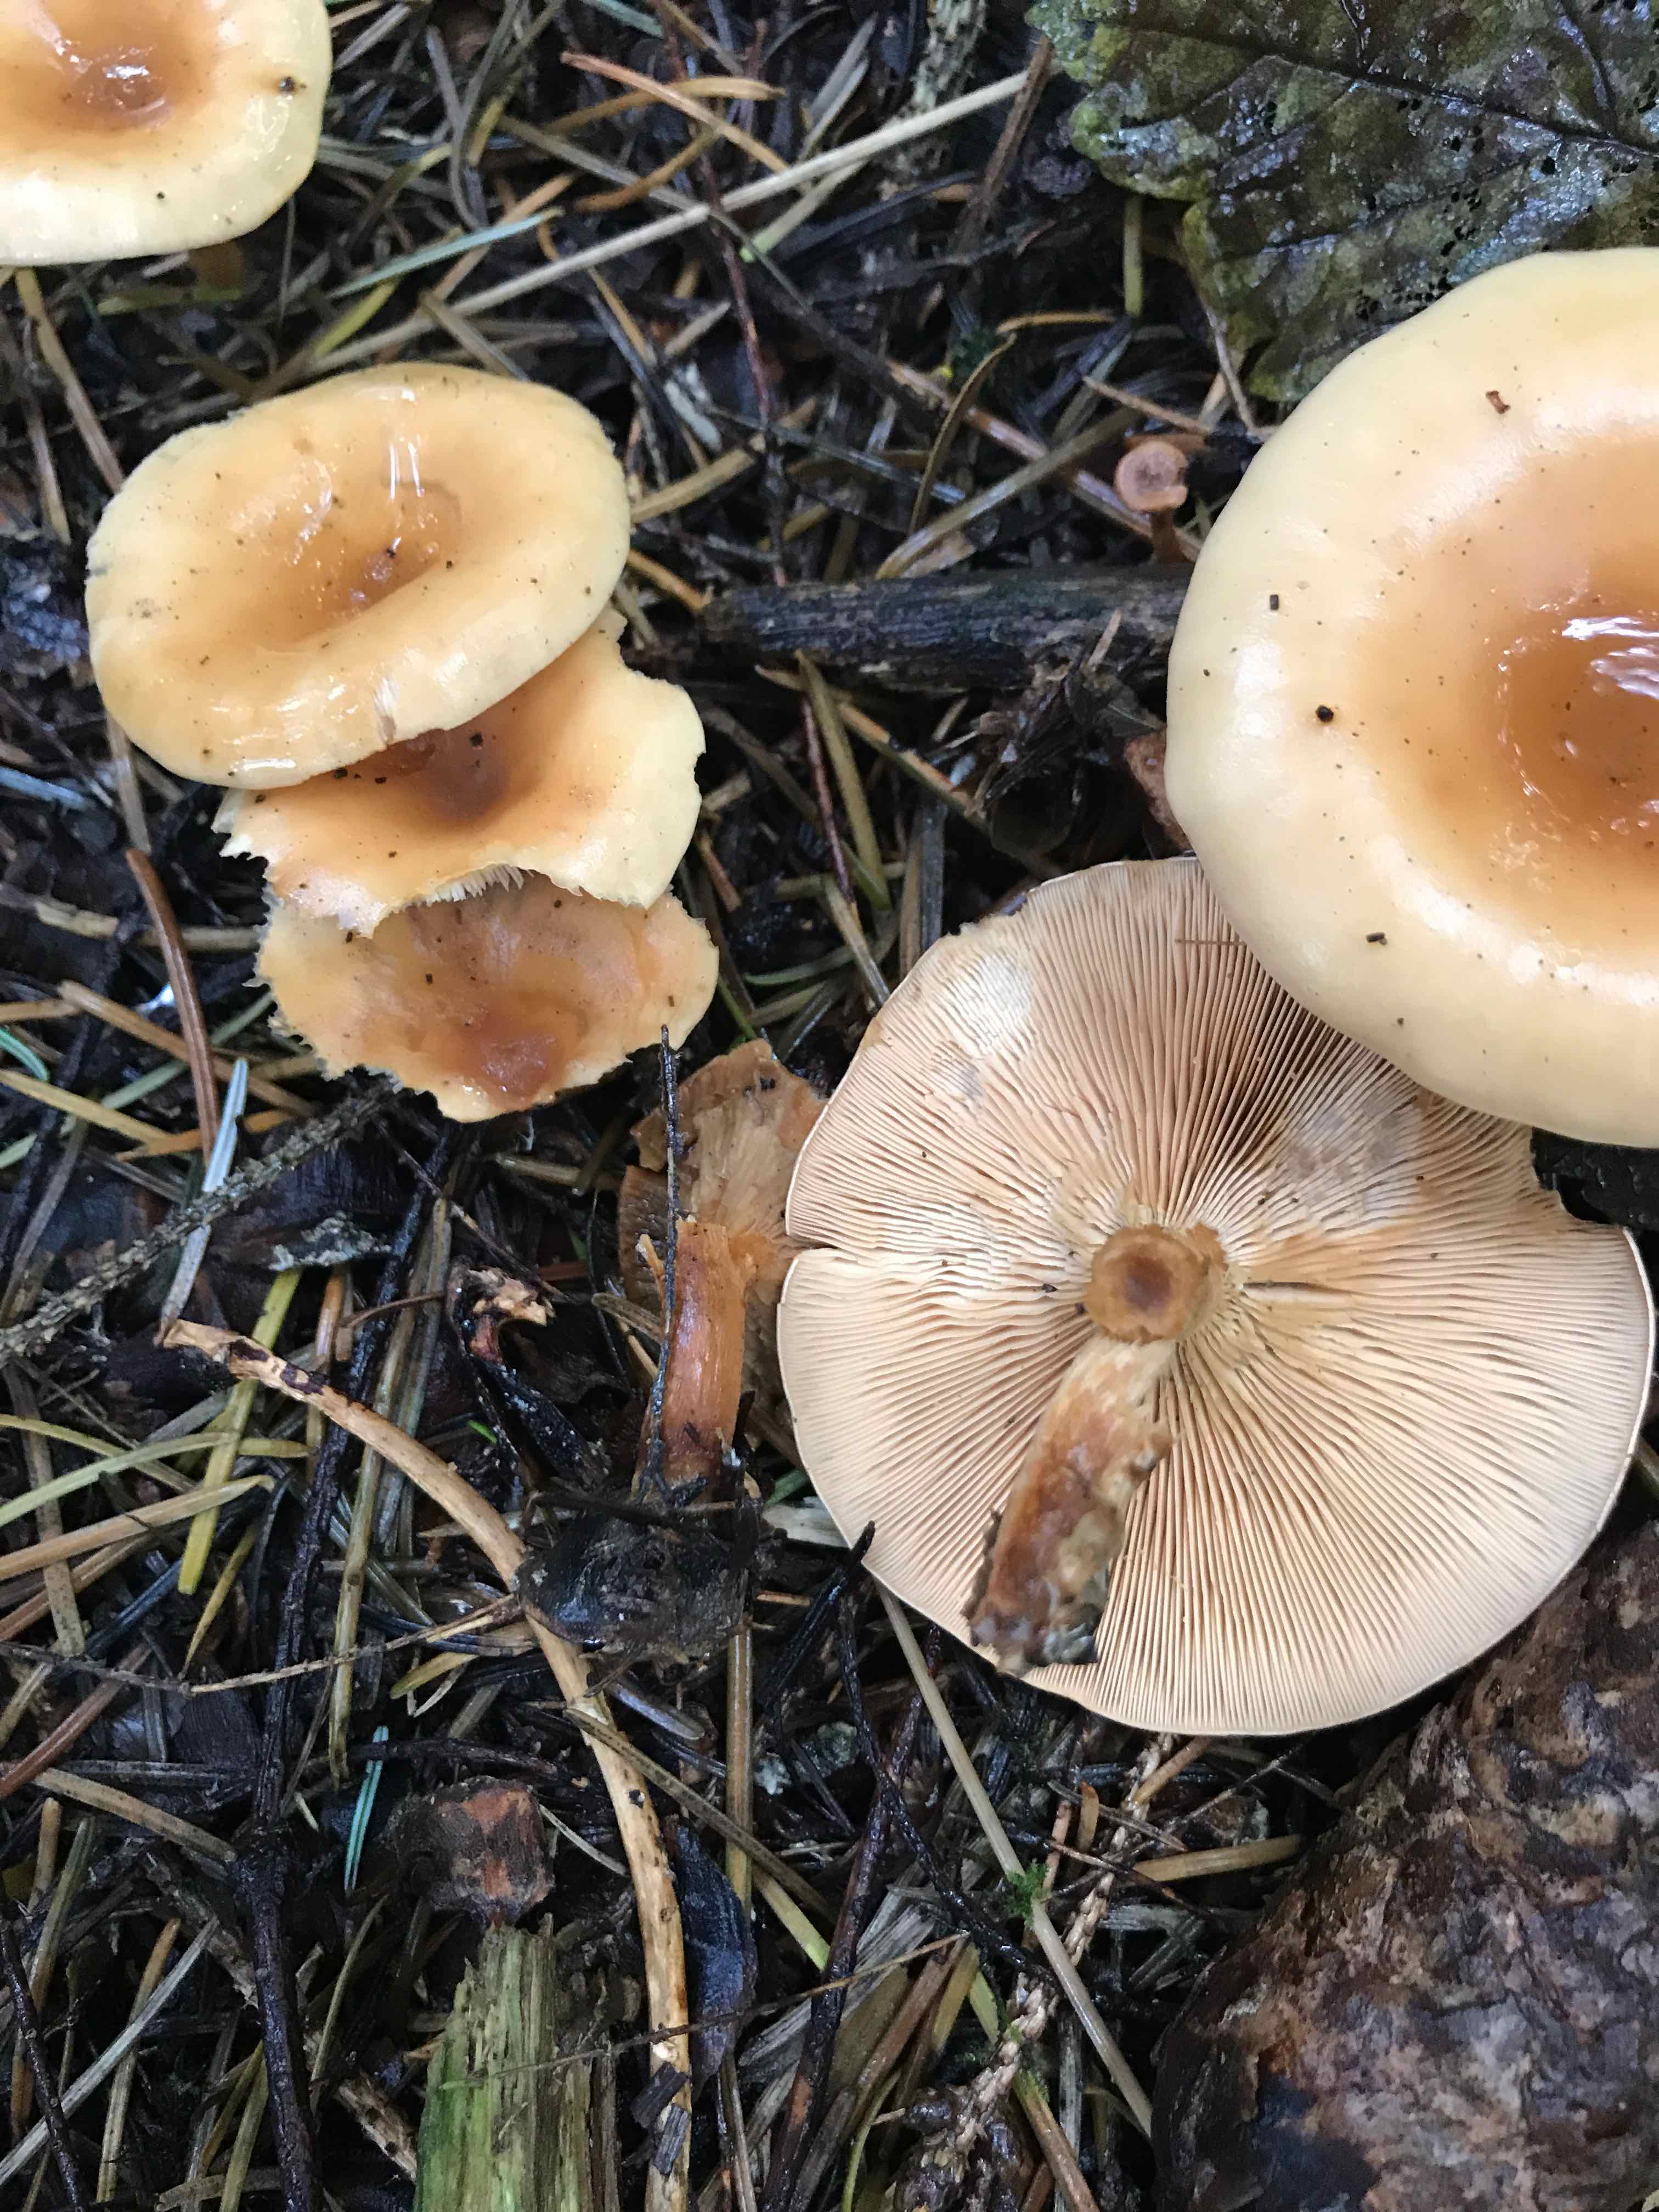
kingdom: Fungi
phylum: Basidiomycota
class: Agaricomycetes
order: Agaricales
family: Tricholomataceae
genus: Paralepista
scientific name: Paralepista flaccida
